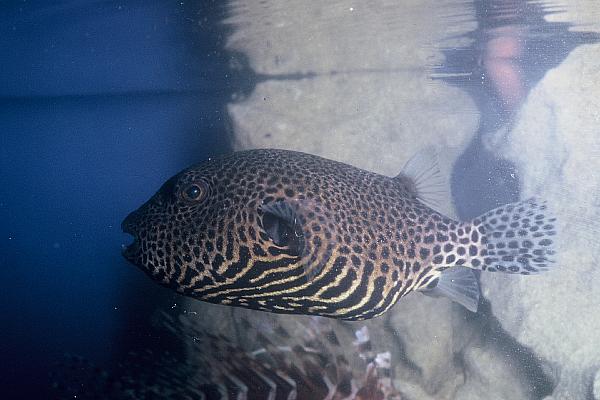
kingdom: Animalia
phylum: Chordata
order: Tetraodontiformes
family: Tetraodontidae
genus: Arothron
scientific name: Arothron stellatus
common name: Star blaasop
